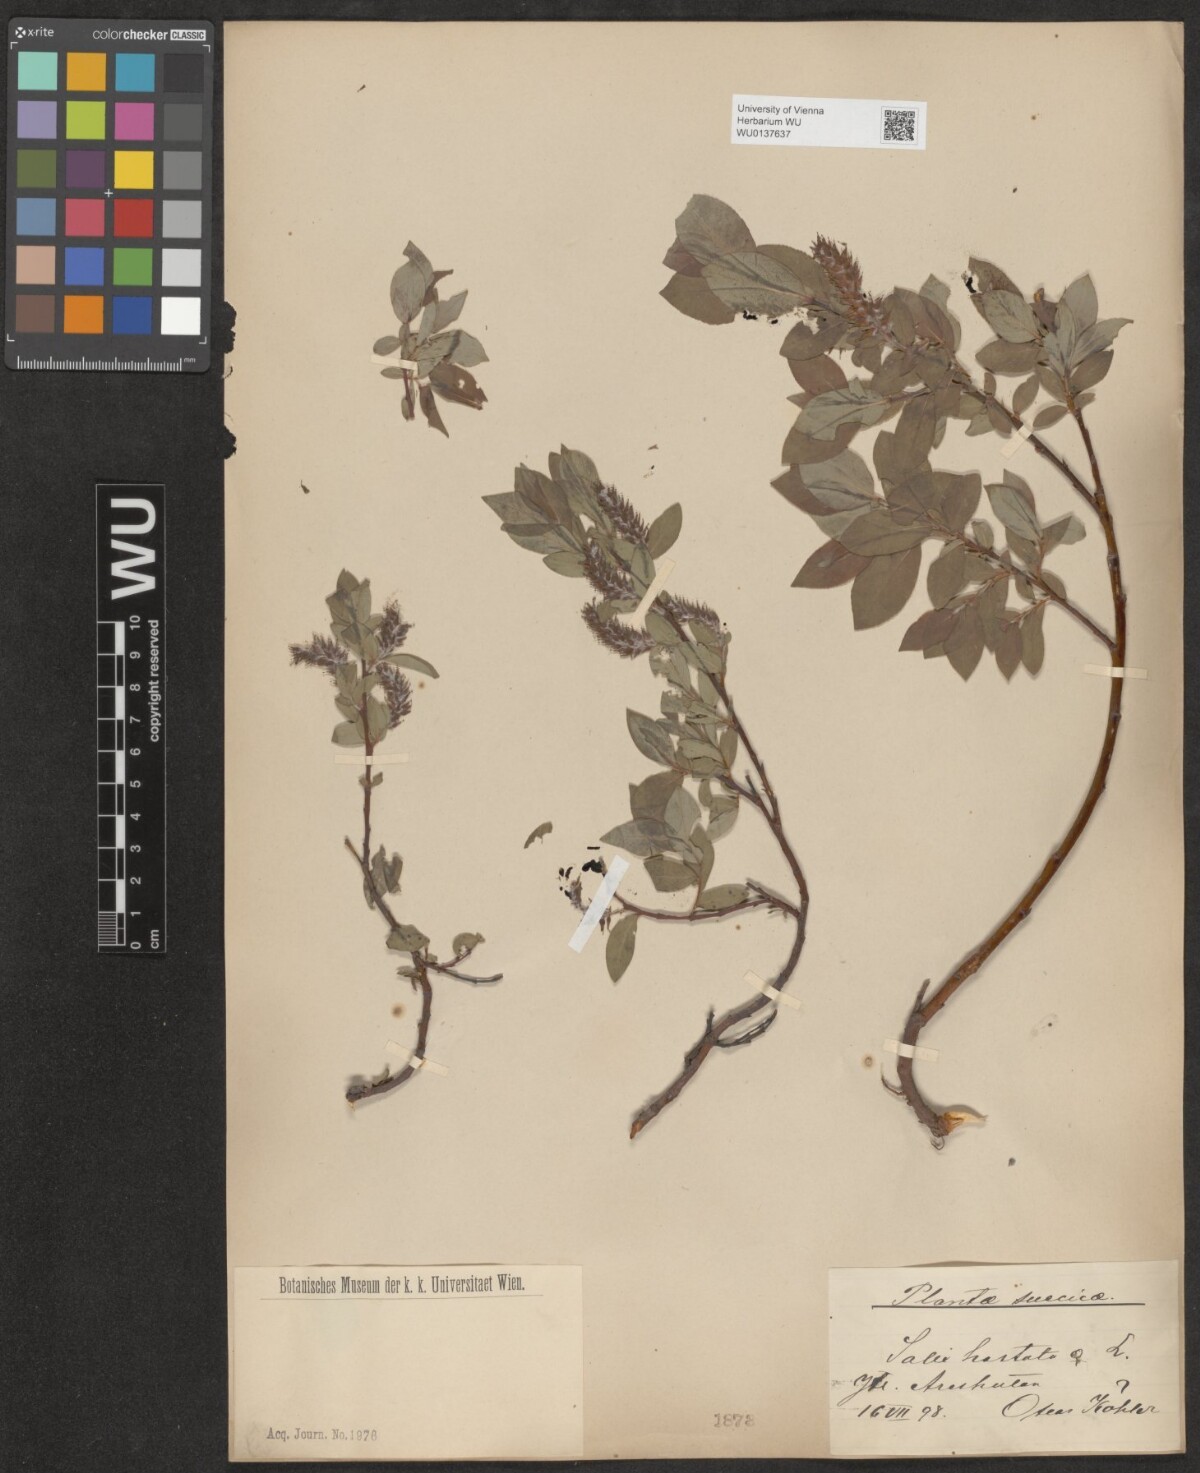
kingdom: Plantae
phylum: Tracheophyta
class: Magnoliopsida
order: Malpighiales
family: Salicaceae
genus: Salix
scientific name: Salix hastata
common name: Halberd willow
